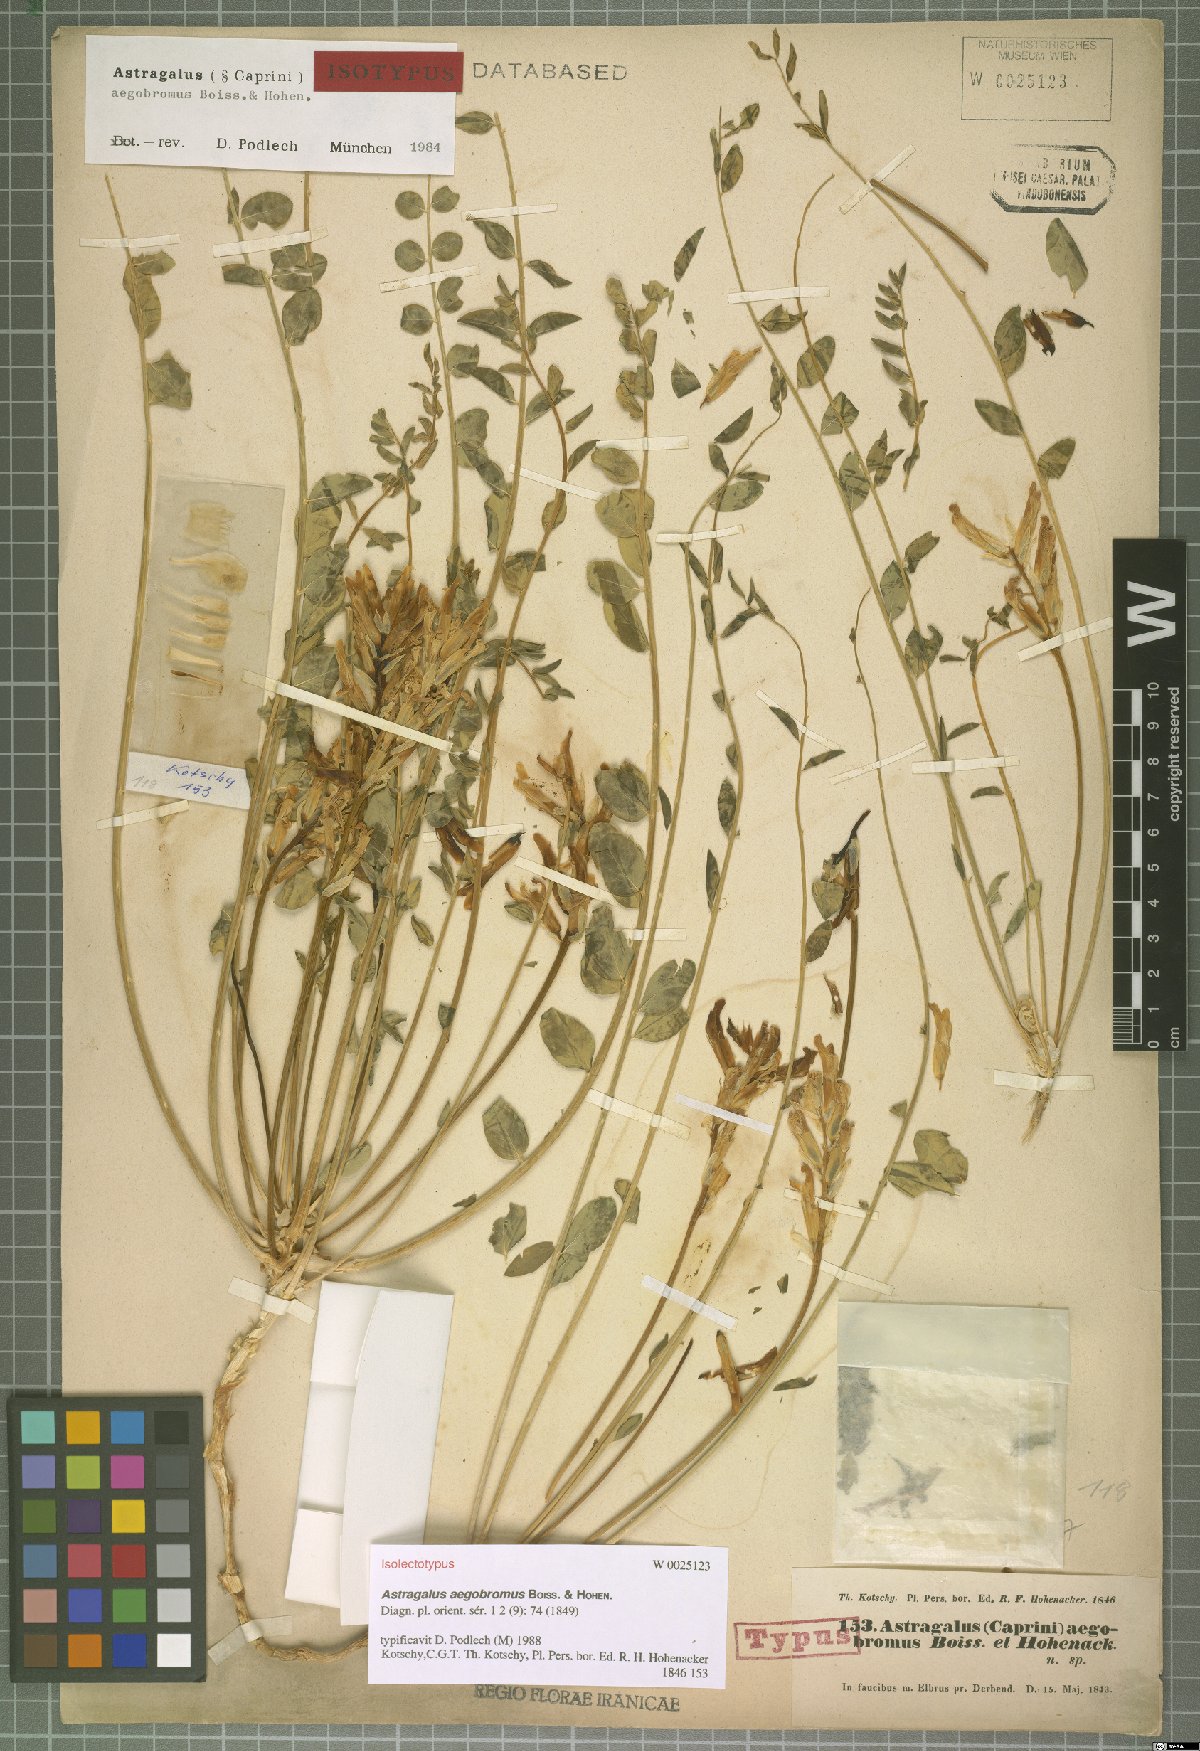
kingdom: Plantae
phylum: Tracheophyta
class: Magnoliopsida
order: Fabales
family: Fabaceae
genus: Astragalus
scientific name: Astragalus aegobromus
